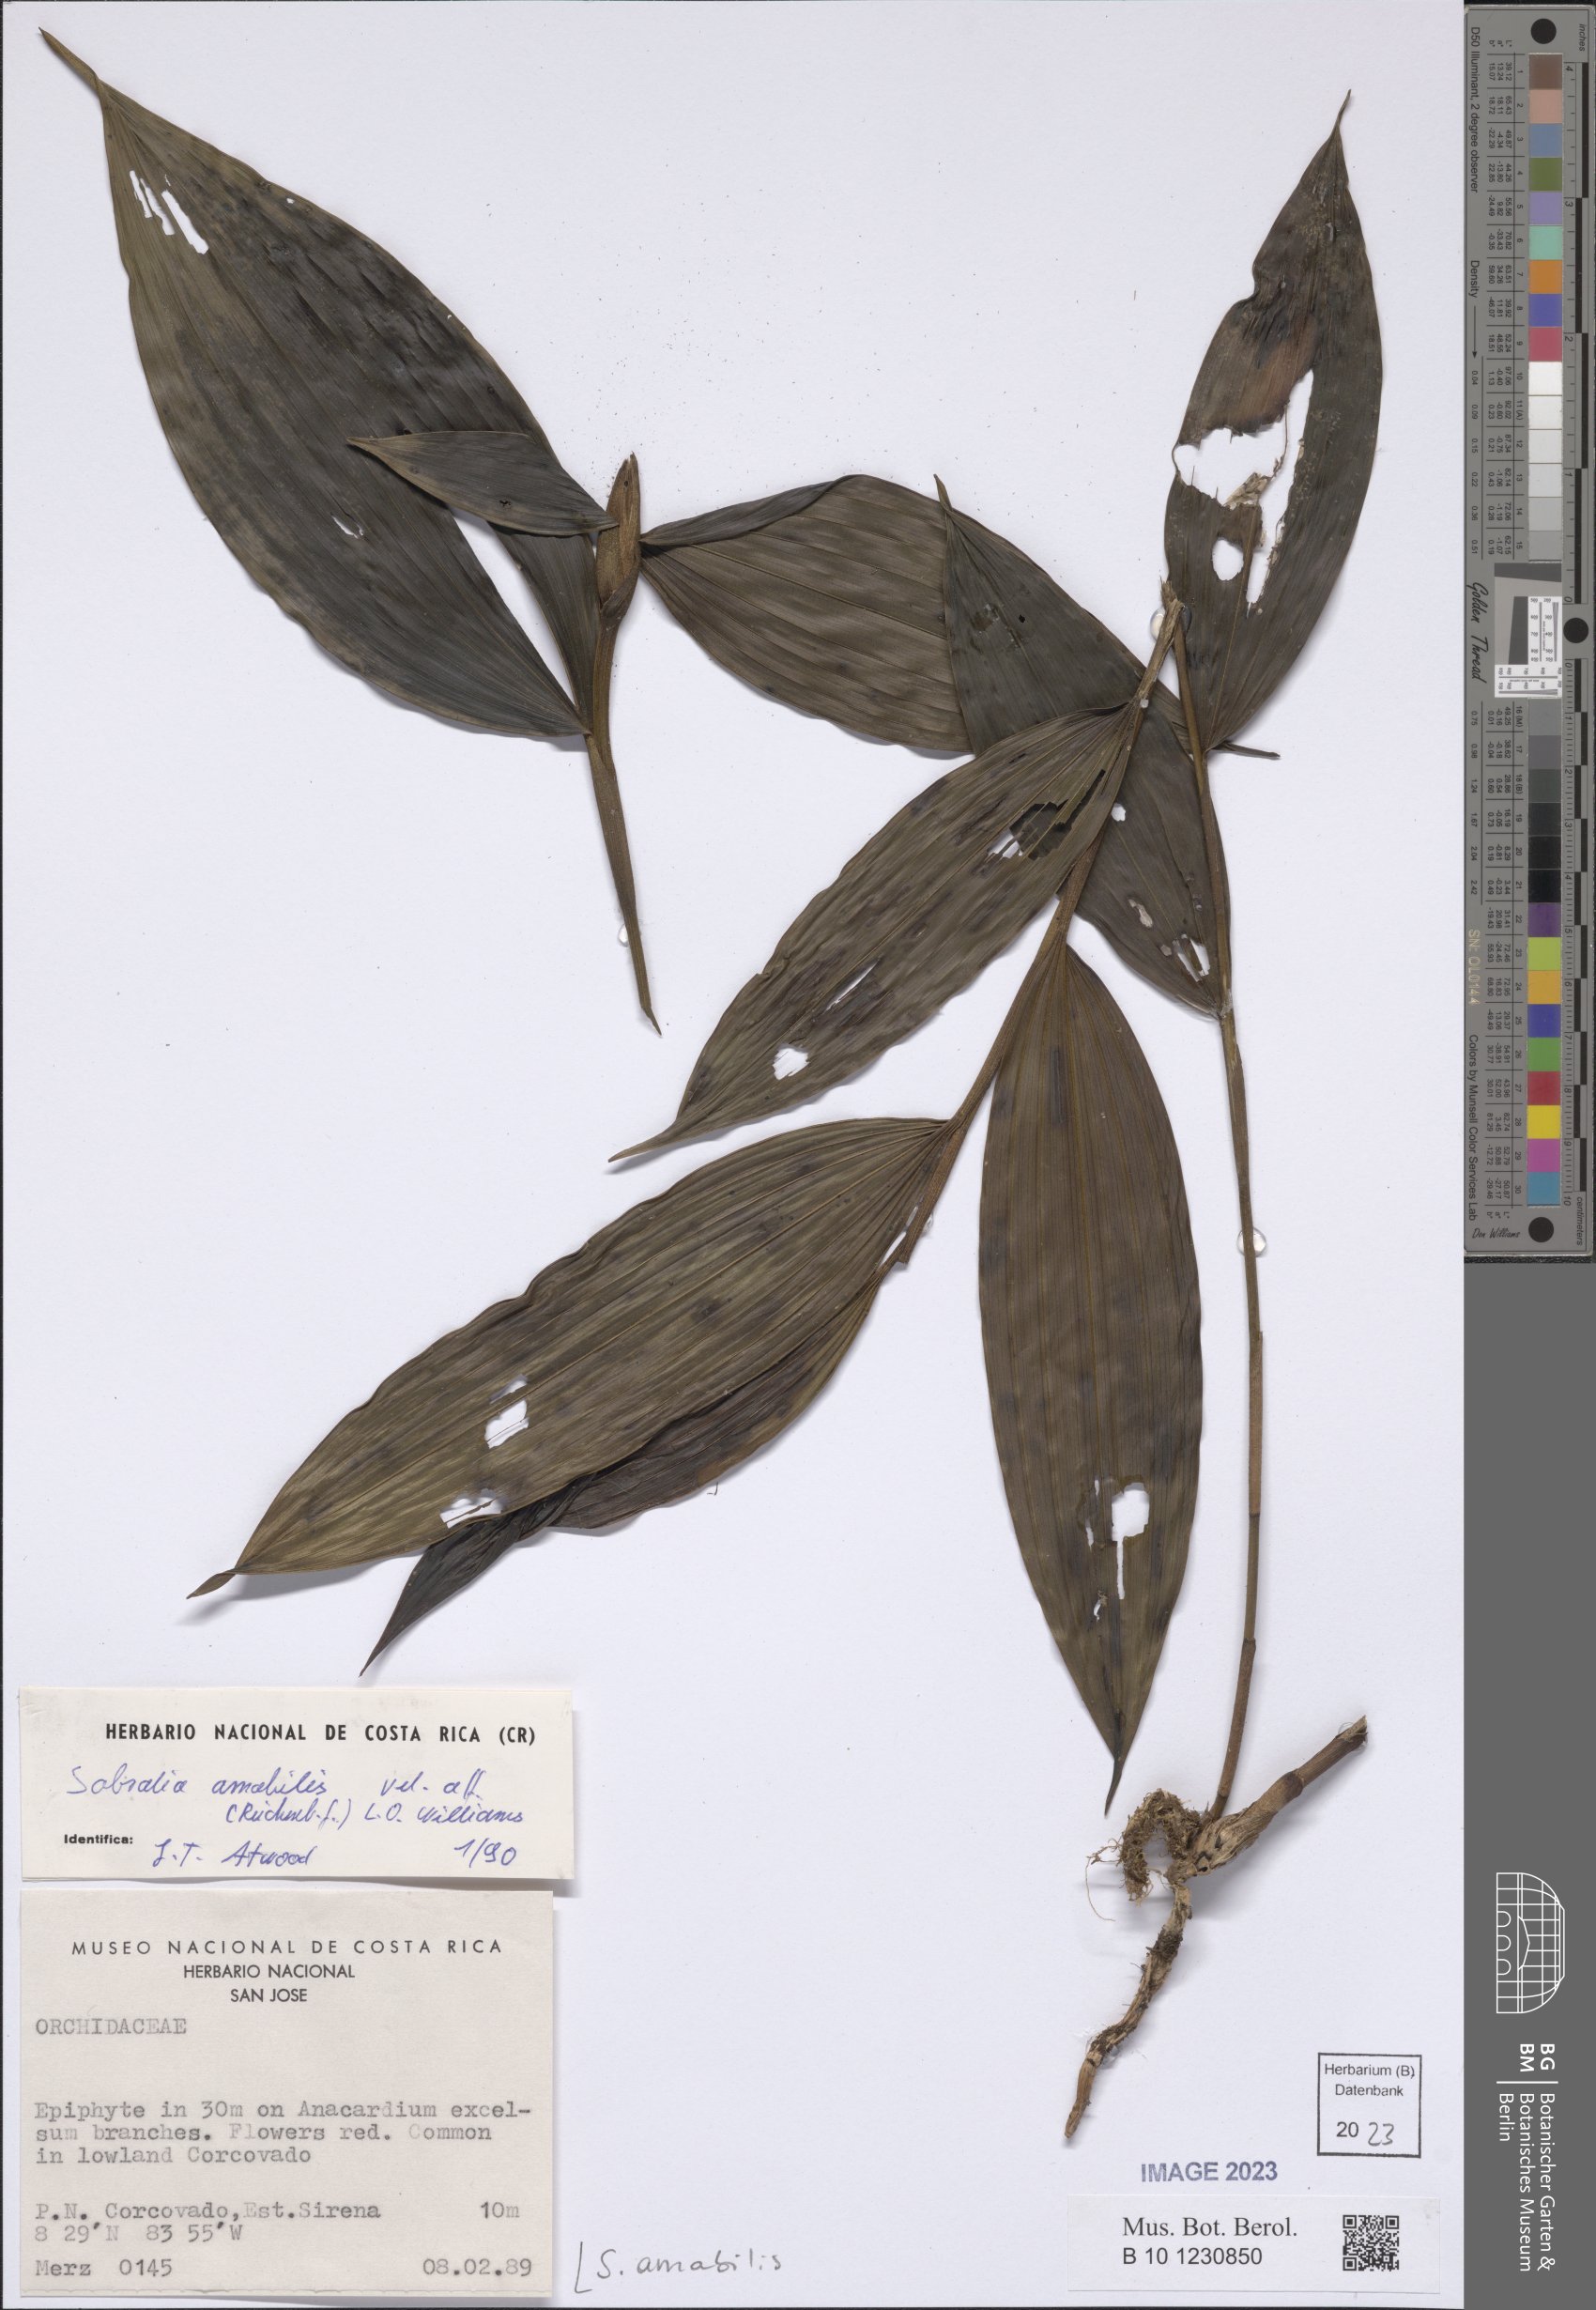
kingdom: Plantae
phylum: Tracheophyta
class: Liliopsida
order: Asparagales
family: Orchidaceae
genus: Sobralia
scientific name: Sobralia amabilis
